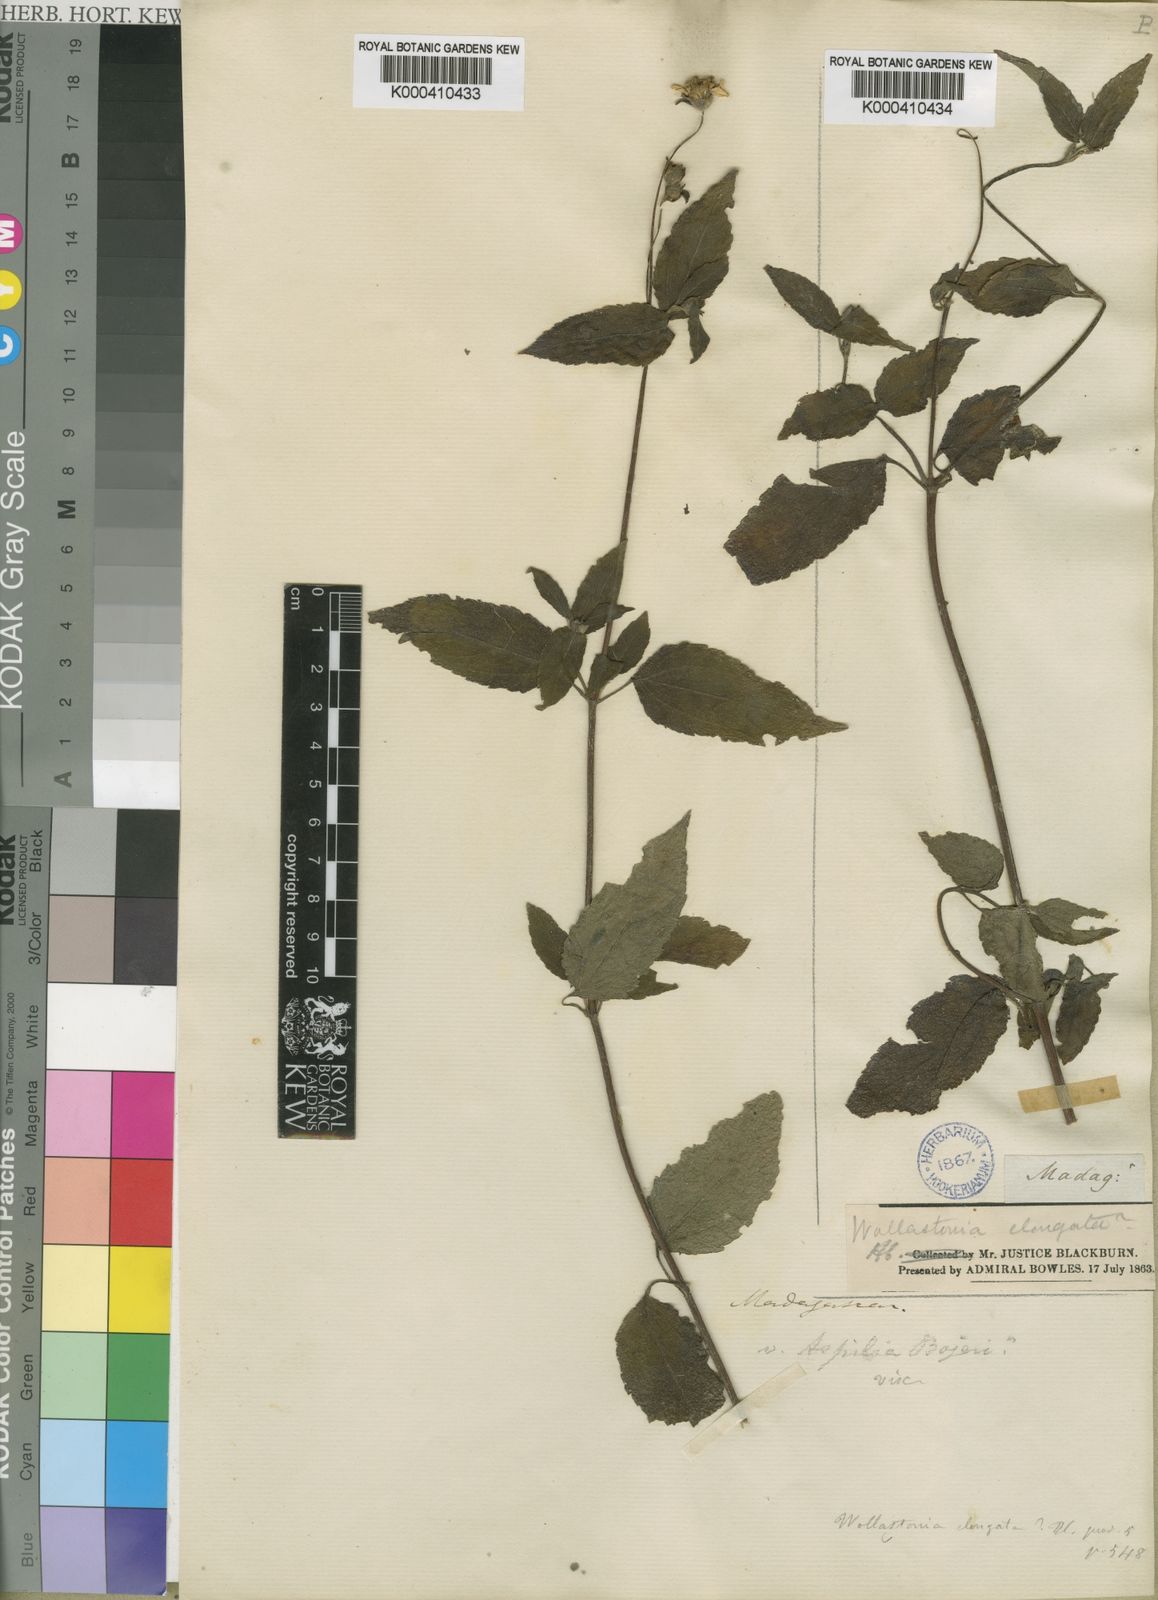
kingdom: Plantae
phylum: Tracheophyta
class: Magnoliopsida
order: Asterales
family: Asteraceae
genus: Lipotriche
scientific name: Lipotriche richardsiae
